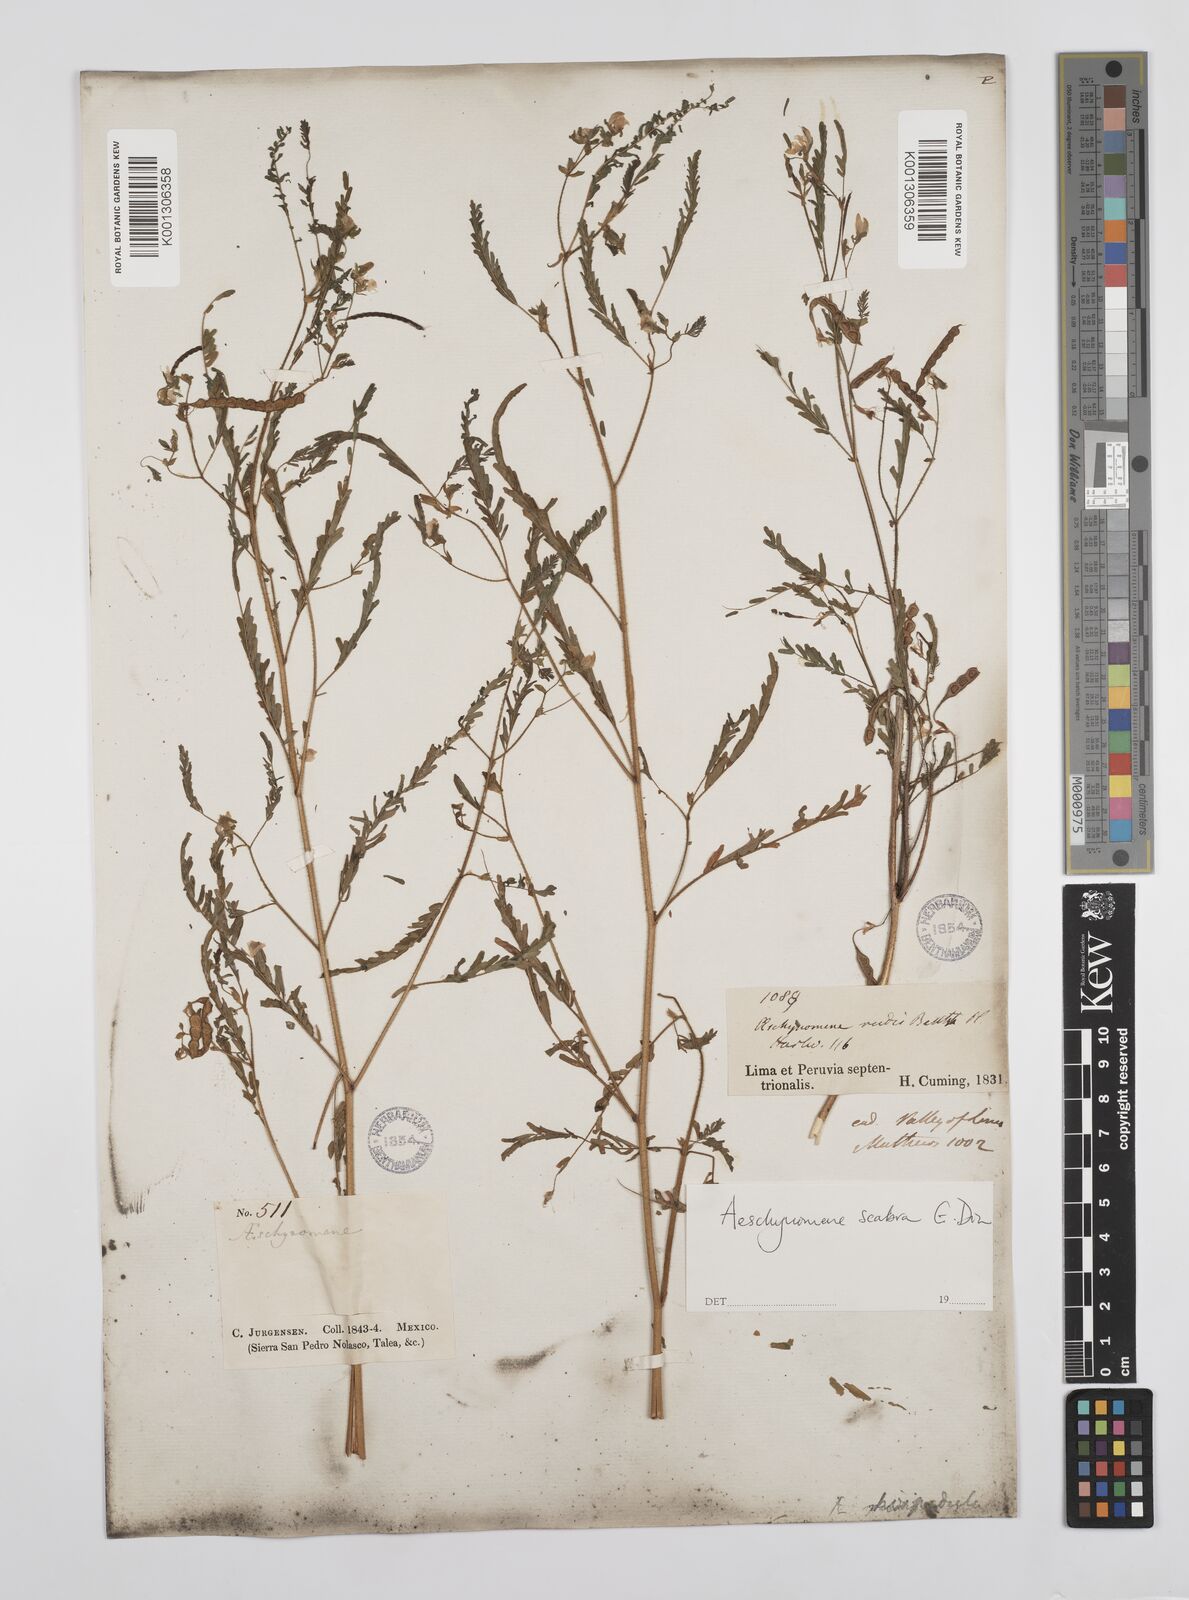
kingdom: Plantae
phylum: Tracheophyta
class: Magnoliopsida
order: Fabales
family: Fabaceae
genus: Aeschynomene
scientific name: Aeschynomene scabra
